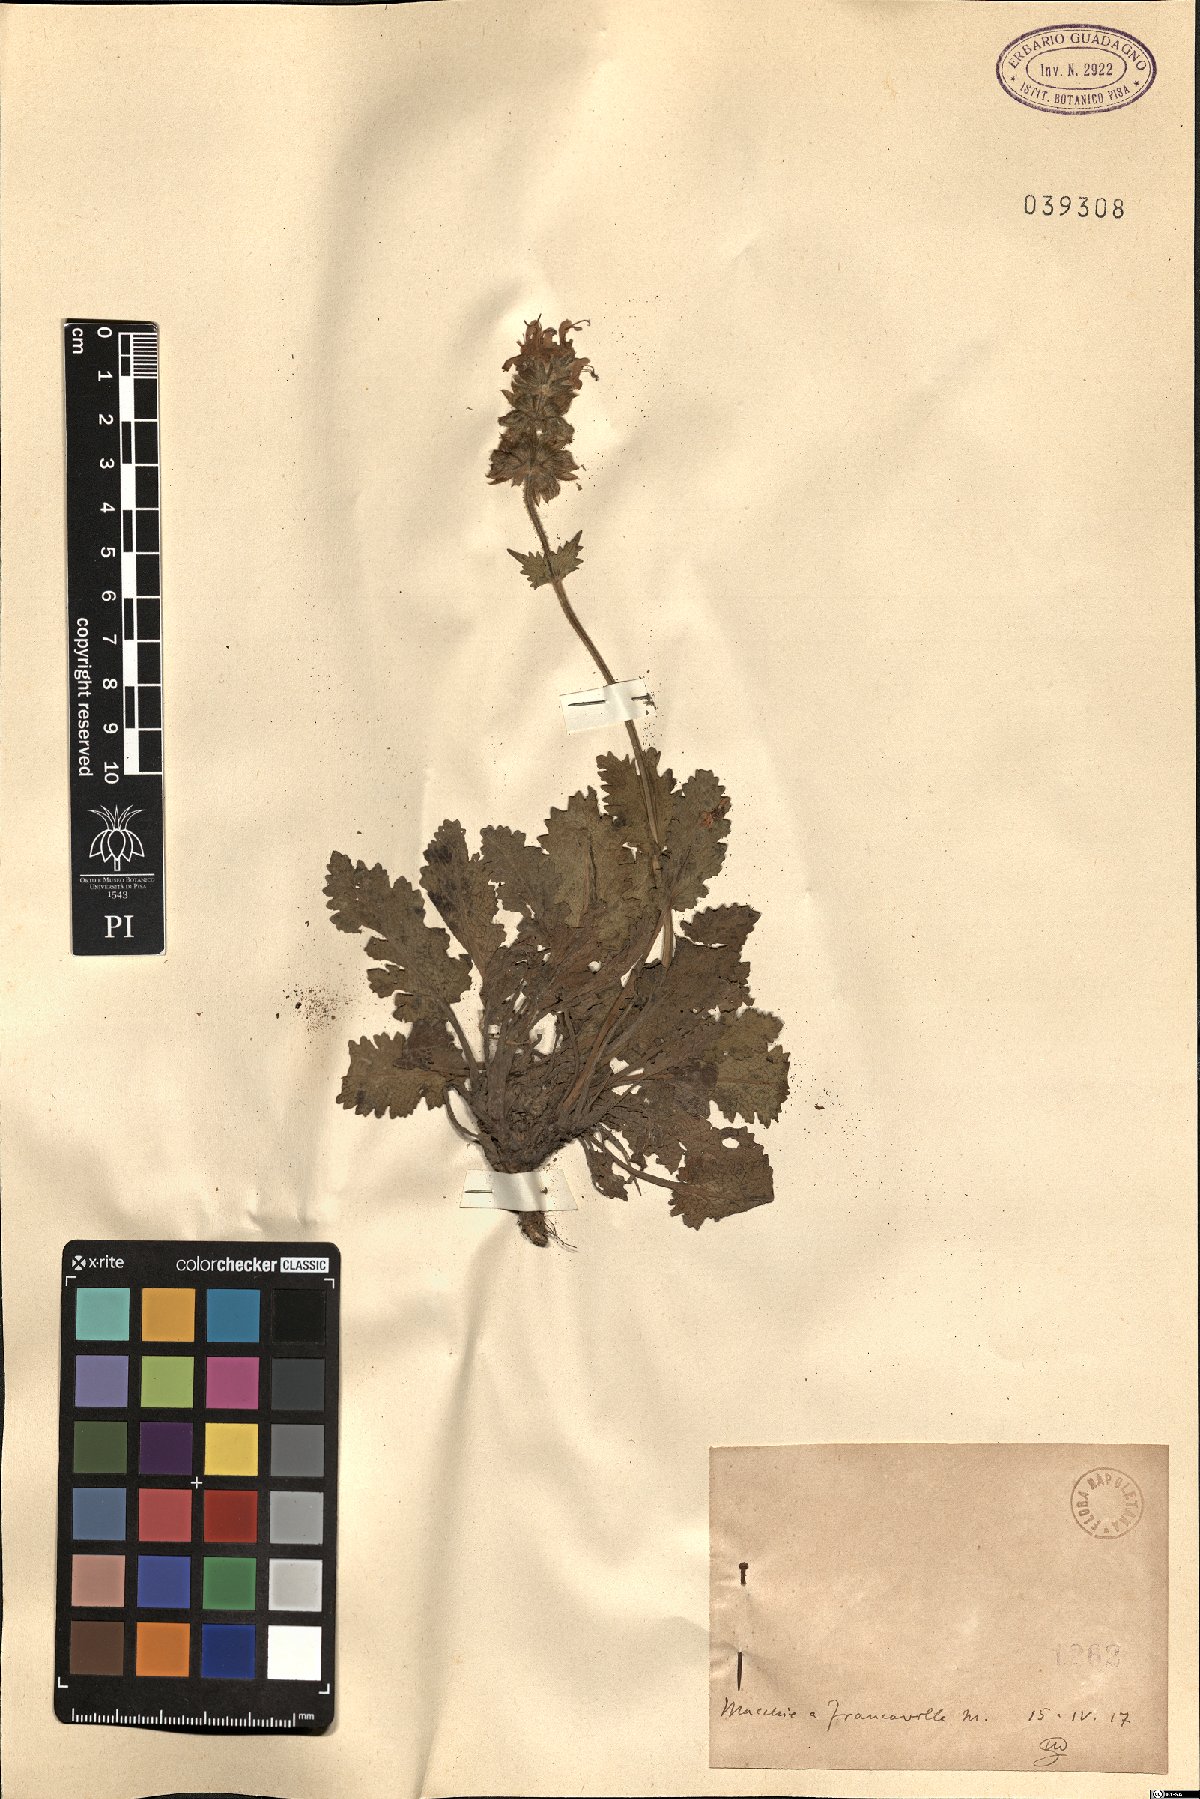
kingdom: Plantae
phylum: Tracheophyta
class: Magnoliopsida
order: Lamiales
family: Lamiaceae
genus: Salvia
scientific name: Salvia
